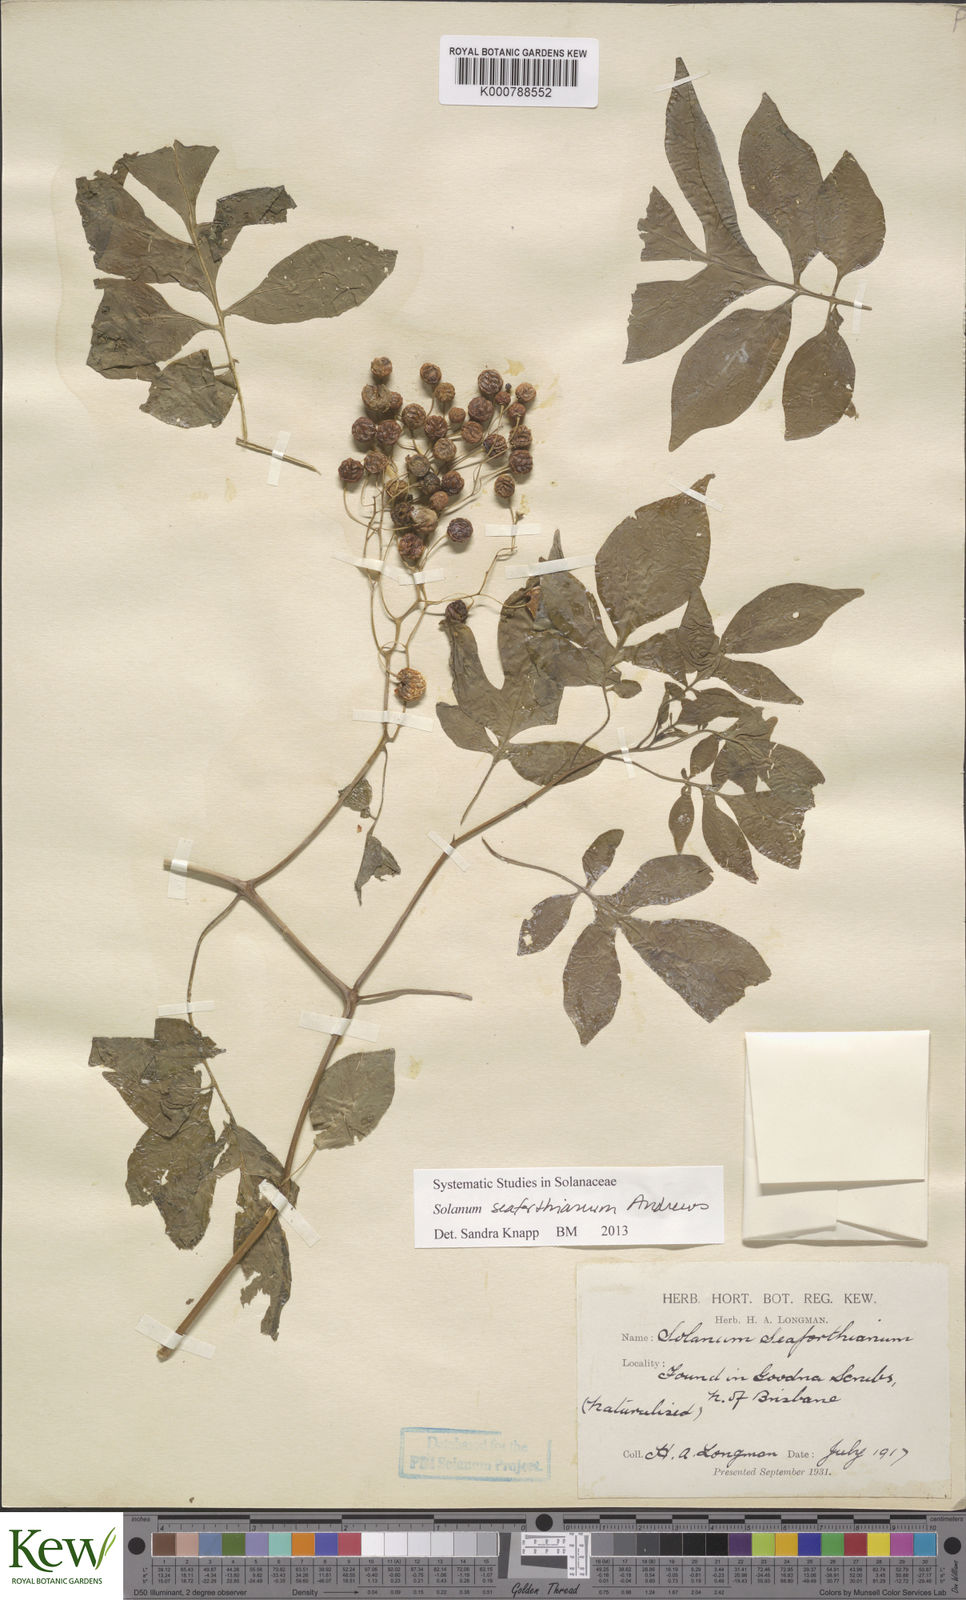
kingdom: Plantae
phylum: Tracheophyta
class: Magnoliopsida
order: Solanales
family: Solanaceae
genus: Solanum
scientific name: Solanum seaforthianum
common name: Brazilian nightshade
